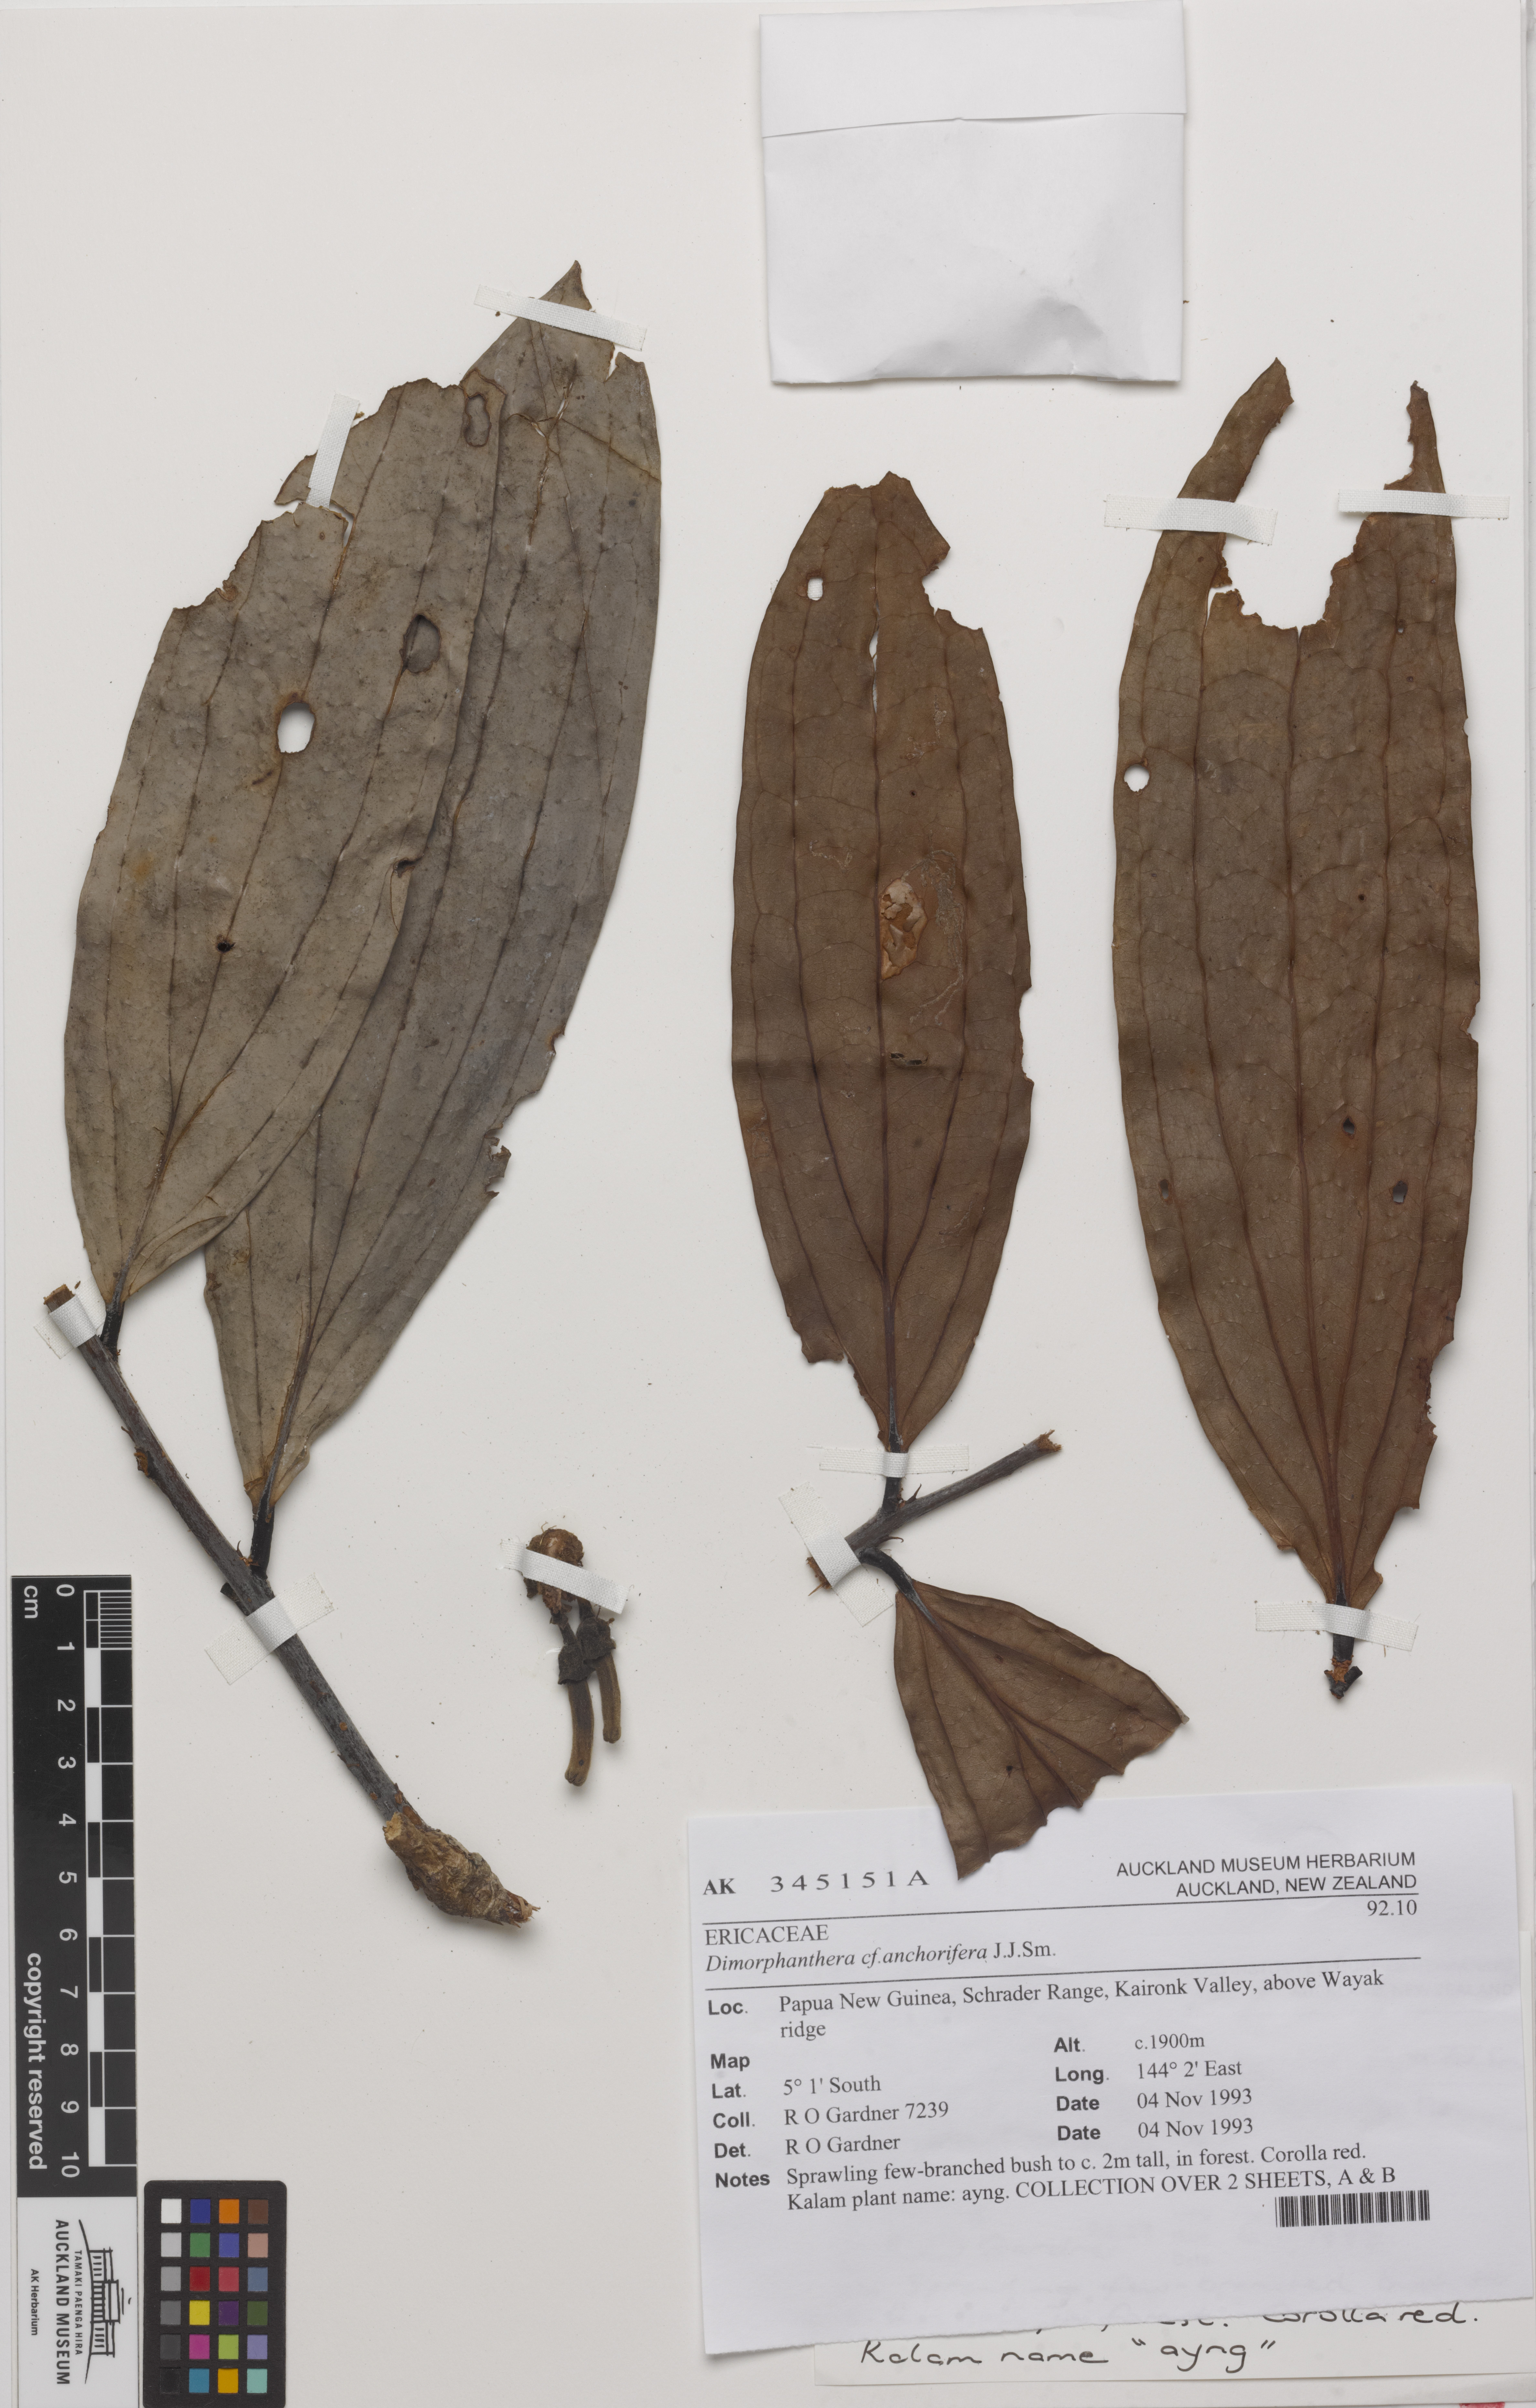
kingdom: Plantae
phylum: Tracheophyta
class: Magnoliopsida
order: Ericales
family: Ericaceae
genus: Dimorphanthera
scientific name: Dimorphanthera anchorifera
